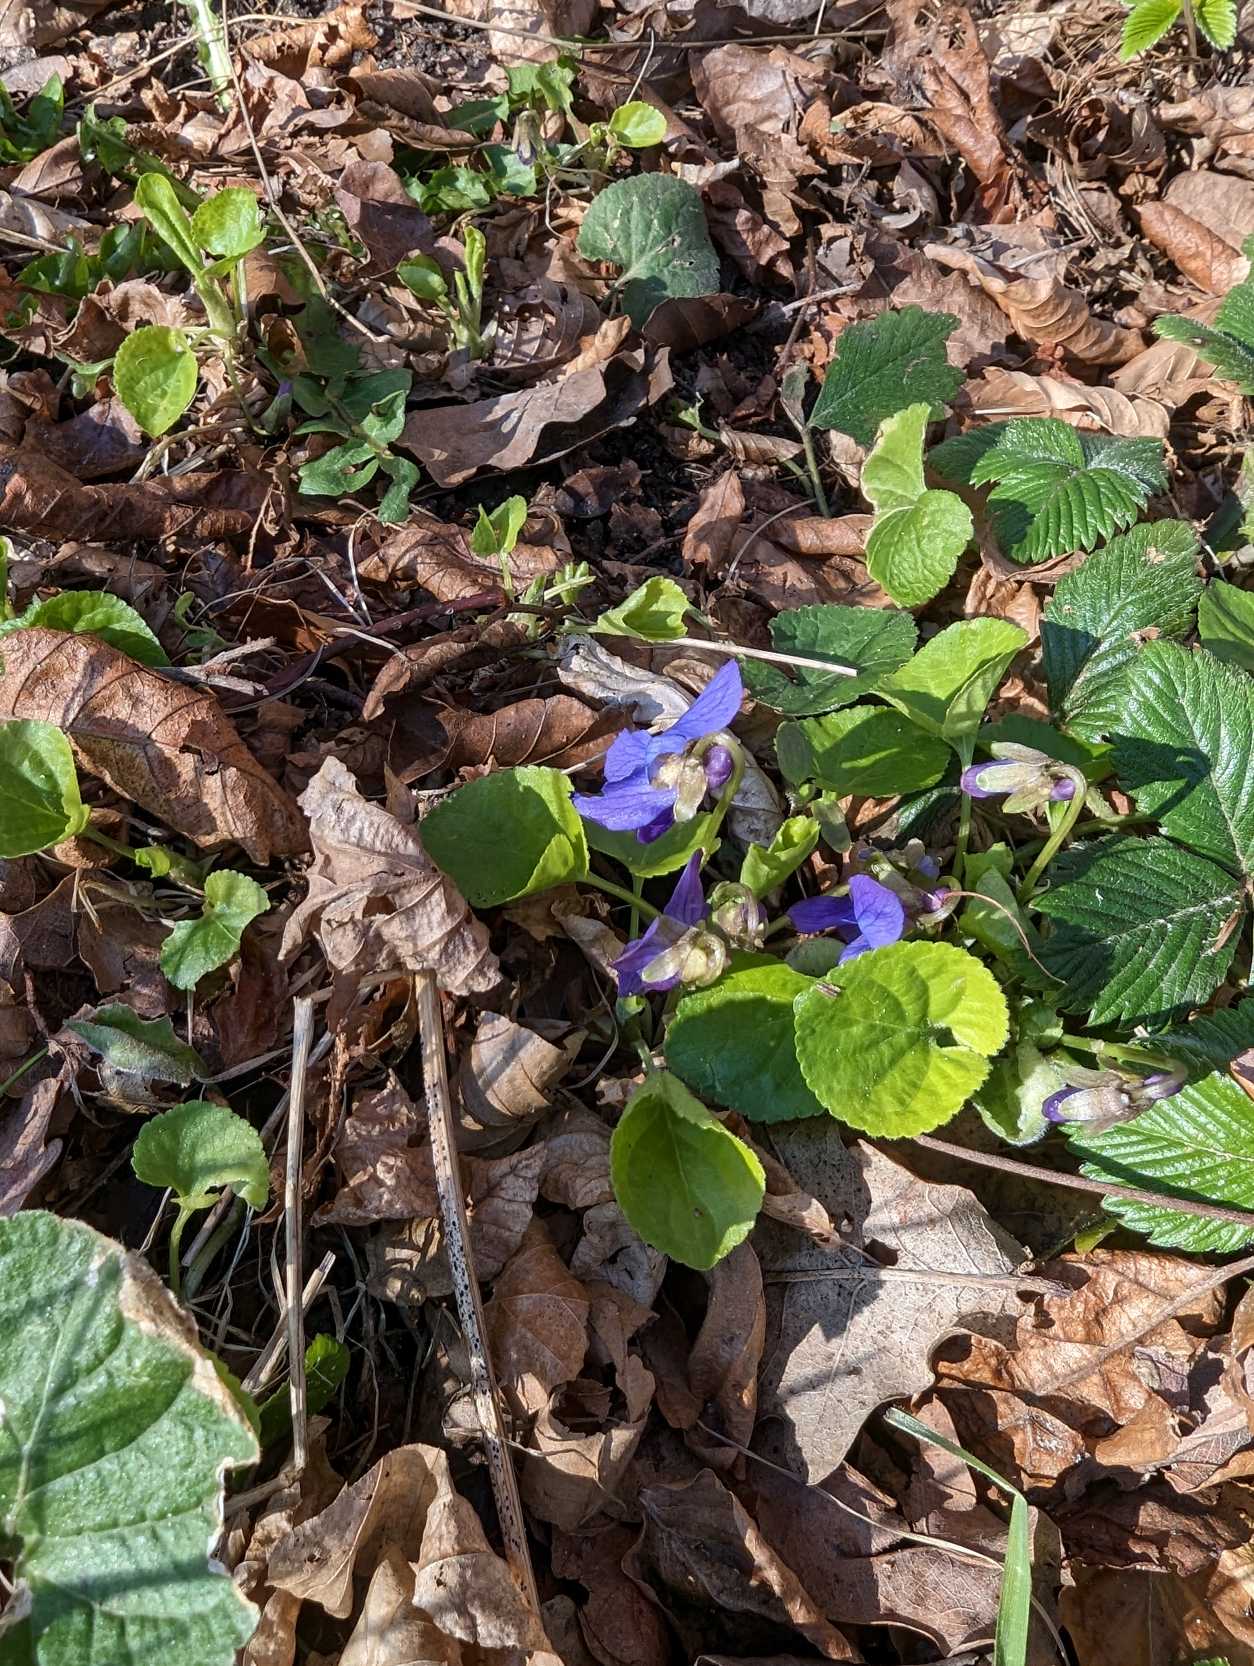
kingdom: Plantae
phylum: Tracheophyta
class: Magnoliopsida
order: Malpighiales
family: Violaceae
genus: Viola
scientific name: Viola odorata
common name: Marts-viol
